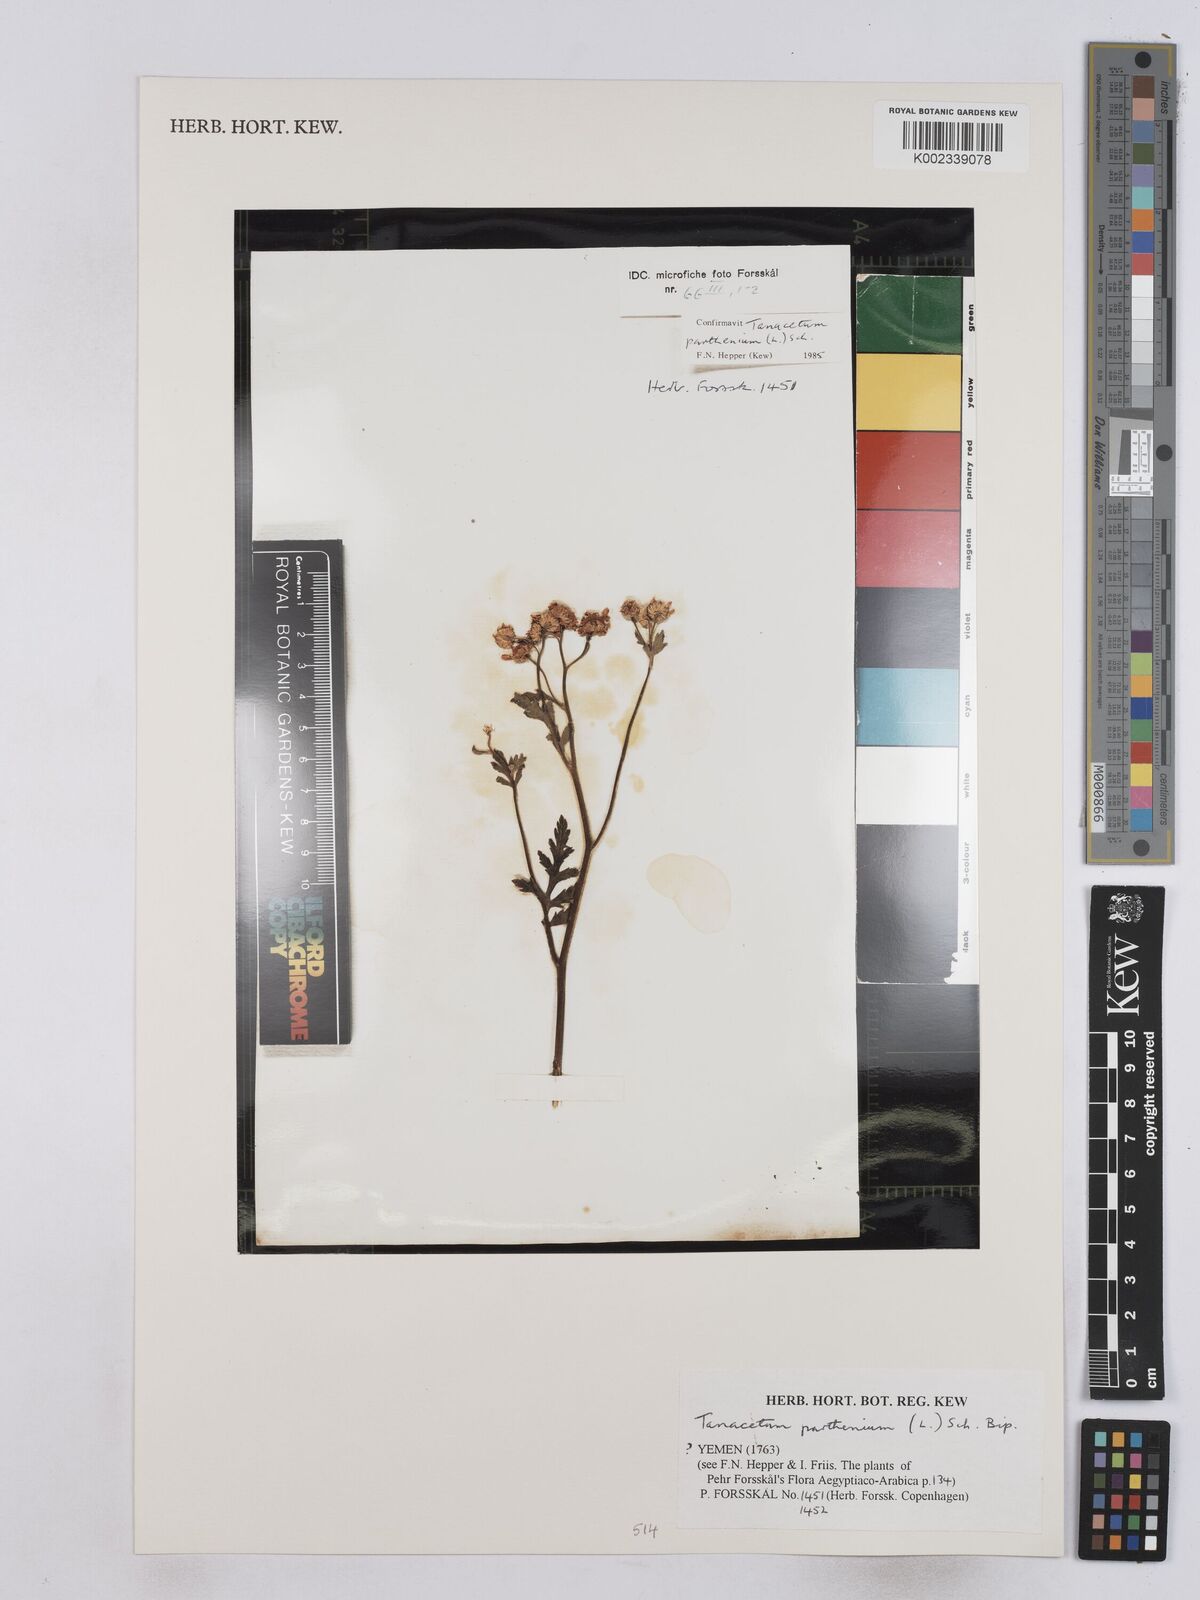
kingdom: Plantae
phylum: Tracheophyta
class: Magnoliopsida
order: Asterales
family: Asteraceae
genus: Tanacetum
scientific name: Tanacetum parthenium
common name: Feverfew
